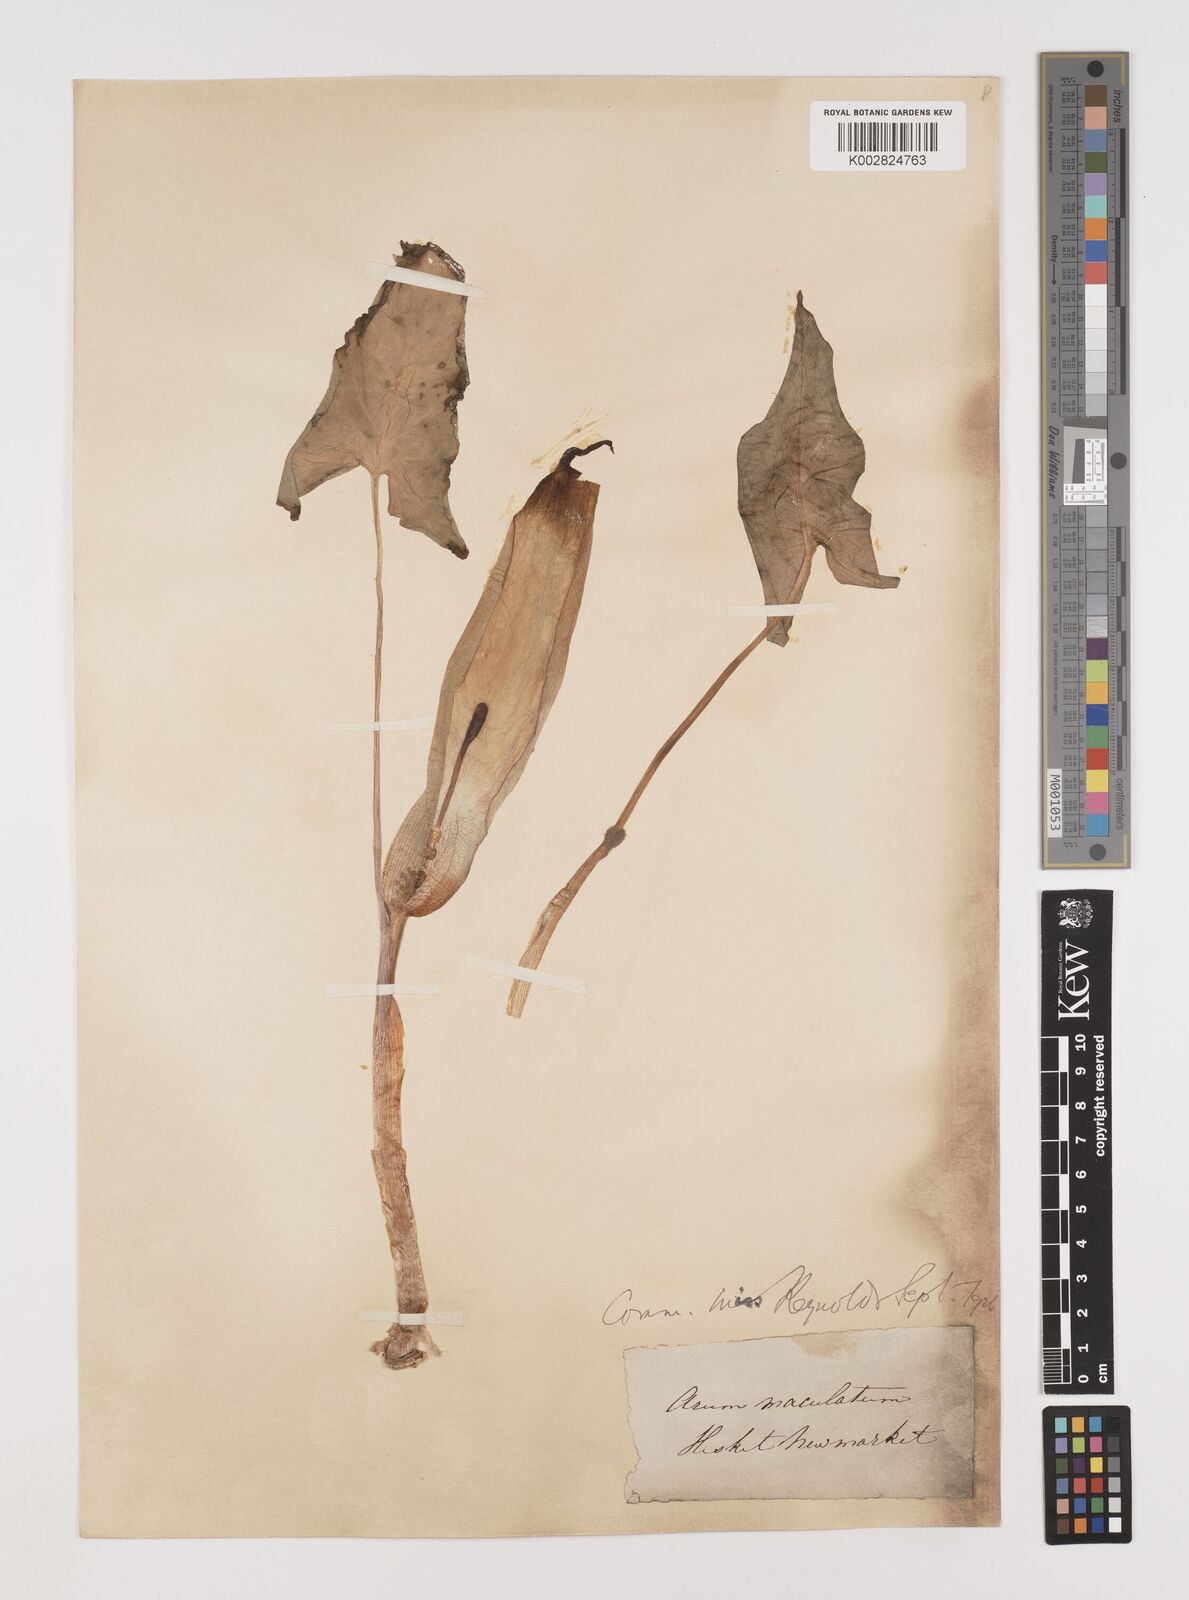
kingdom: Plantae
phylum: Tracheophyta
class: Liliopsida
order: Alismatales
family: Araceae
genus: Arum
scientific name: Arum maculatum
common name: Lords-and-ladies
